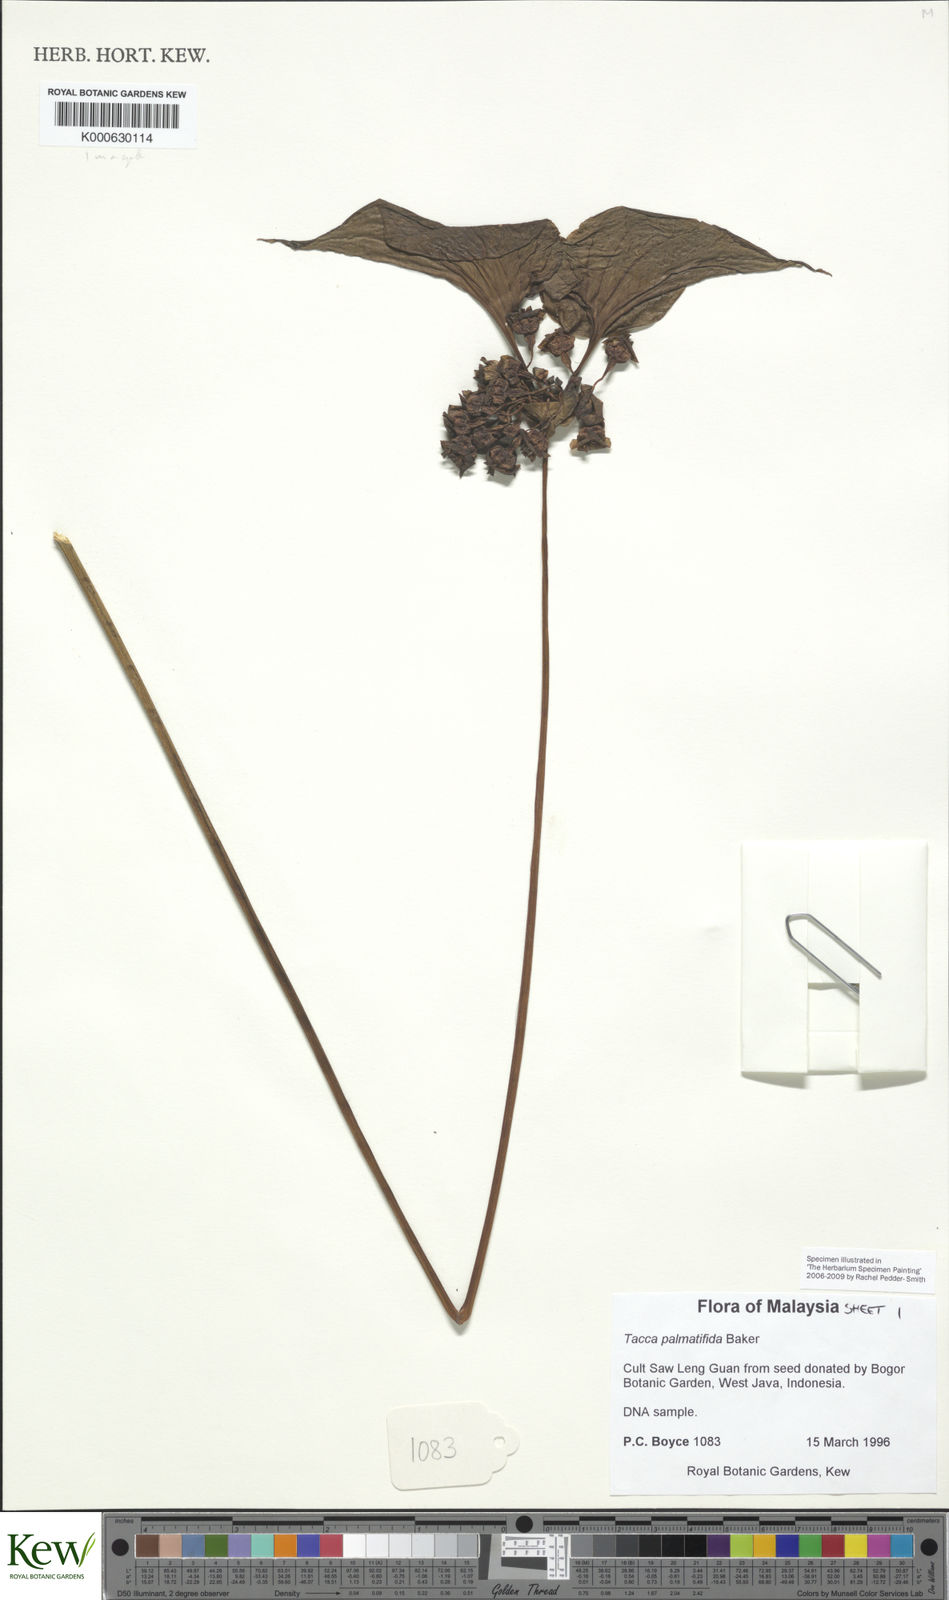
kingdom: Plantae
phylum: Tracheophyta
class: Liliopsida
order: Dioscoreales
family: Dioscoreaceae
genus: Tacca
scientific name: Tacca plantaginea
